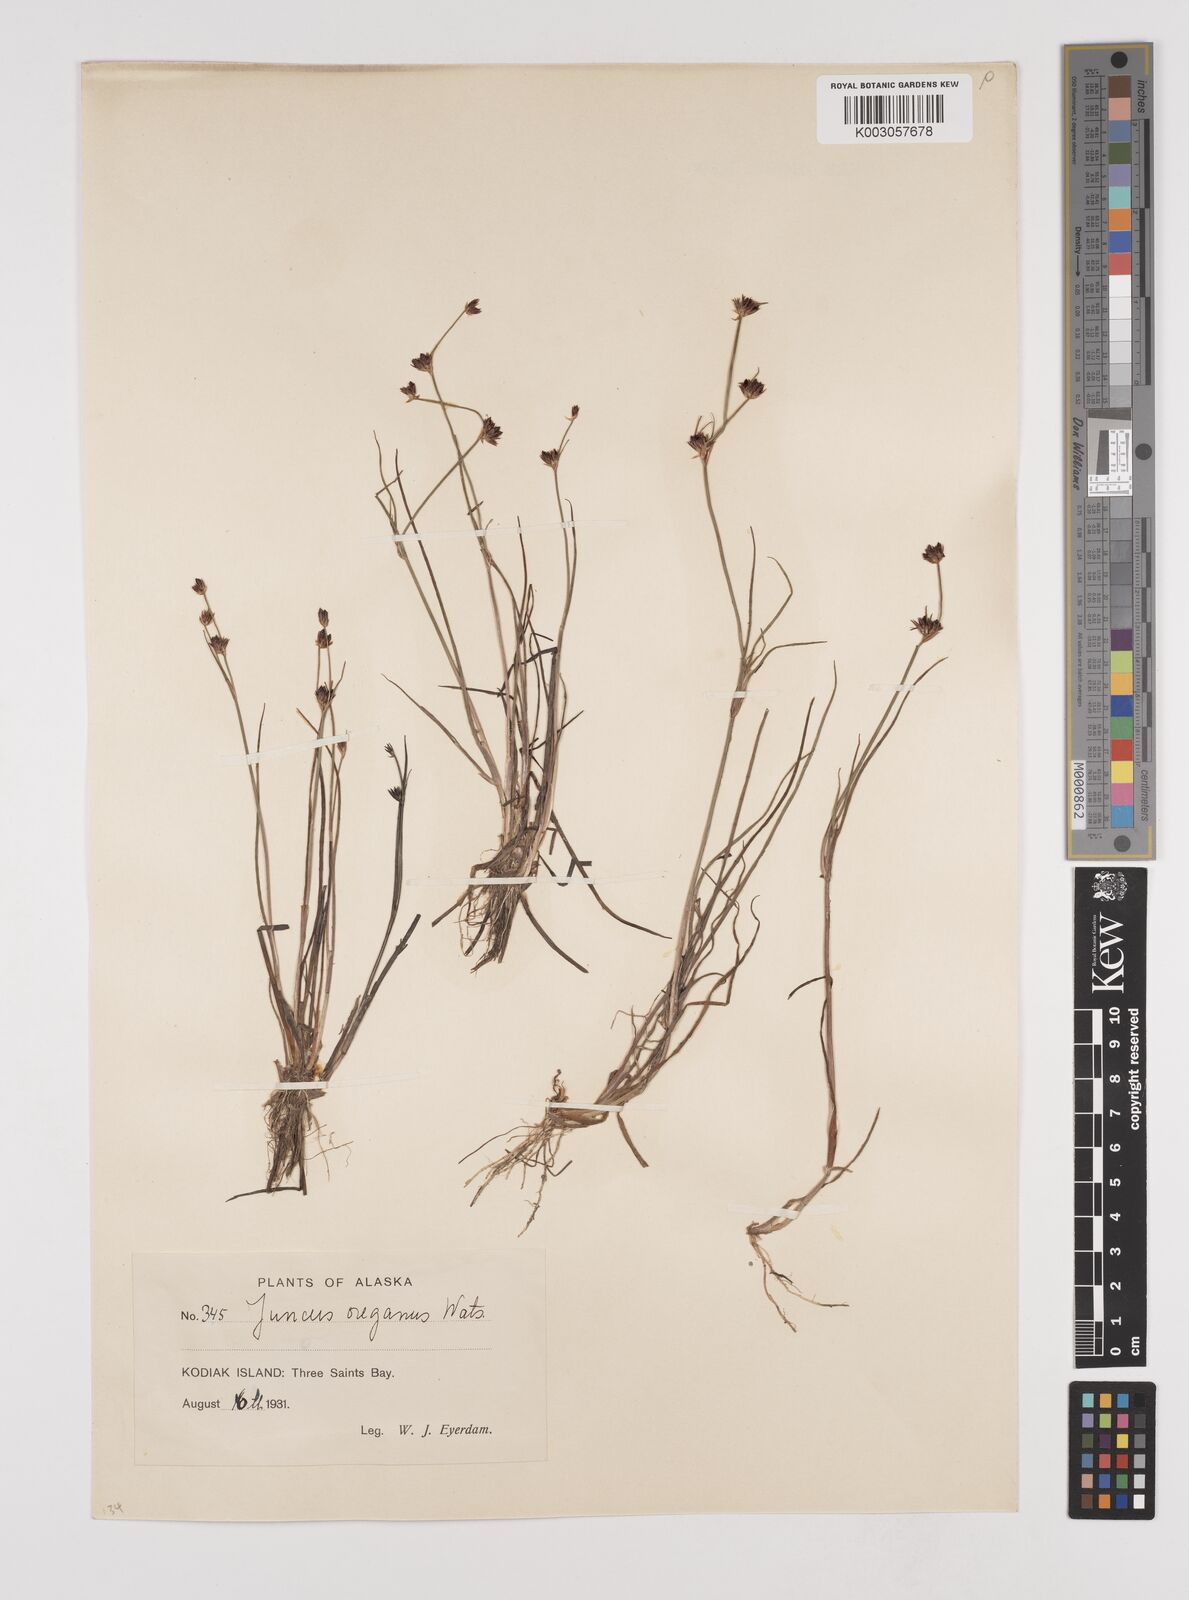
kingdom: Plantae
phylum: Tracheophyta
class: Liliopsida
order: Poales
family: Juncaceae
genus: Juncus
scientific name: Juncus supiniformis
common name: Hairy-leaved rush
